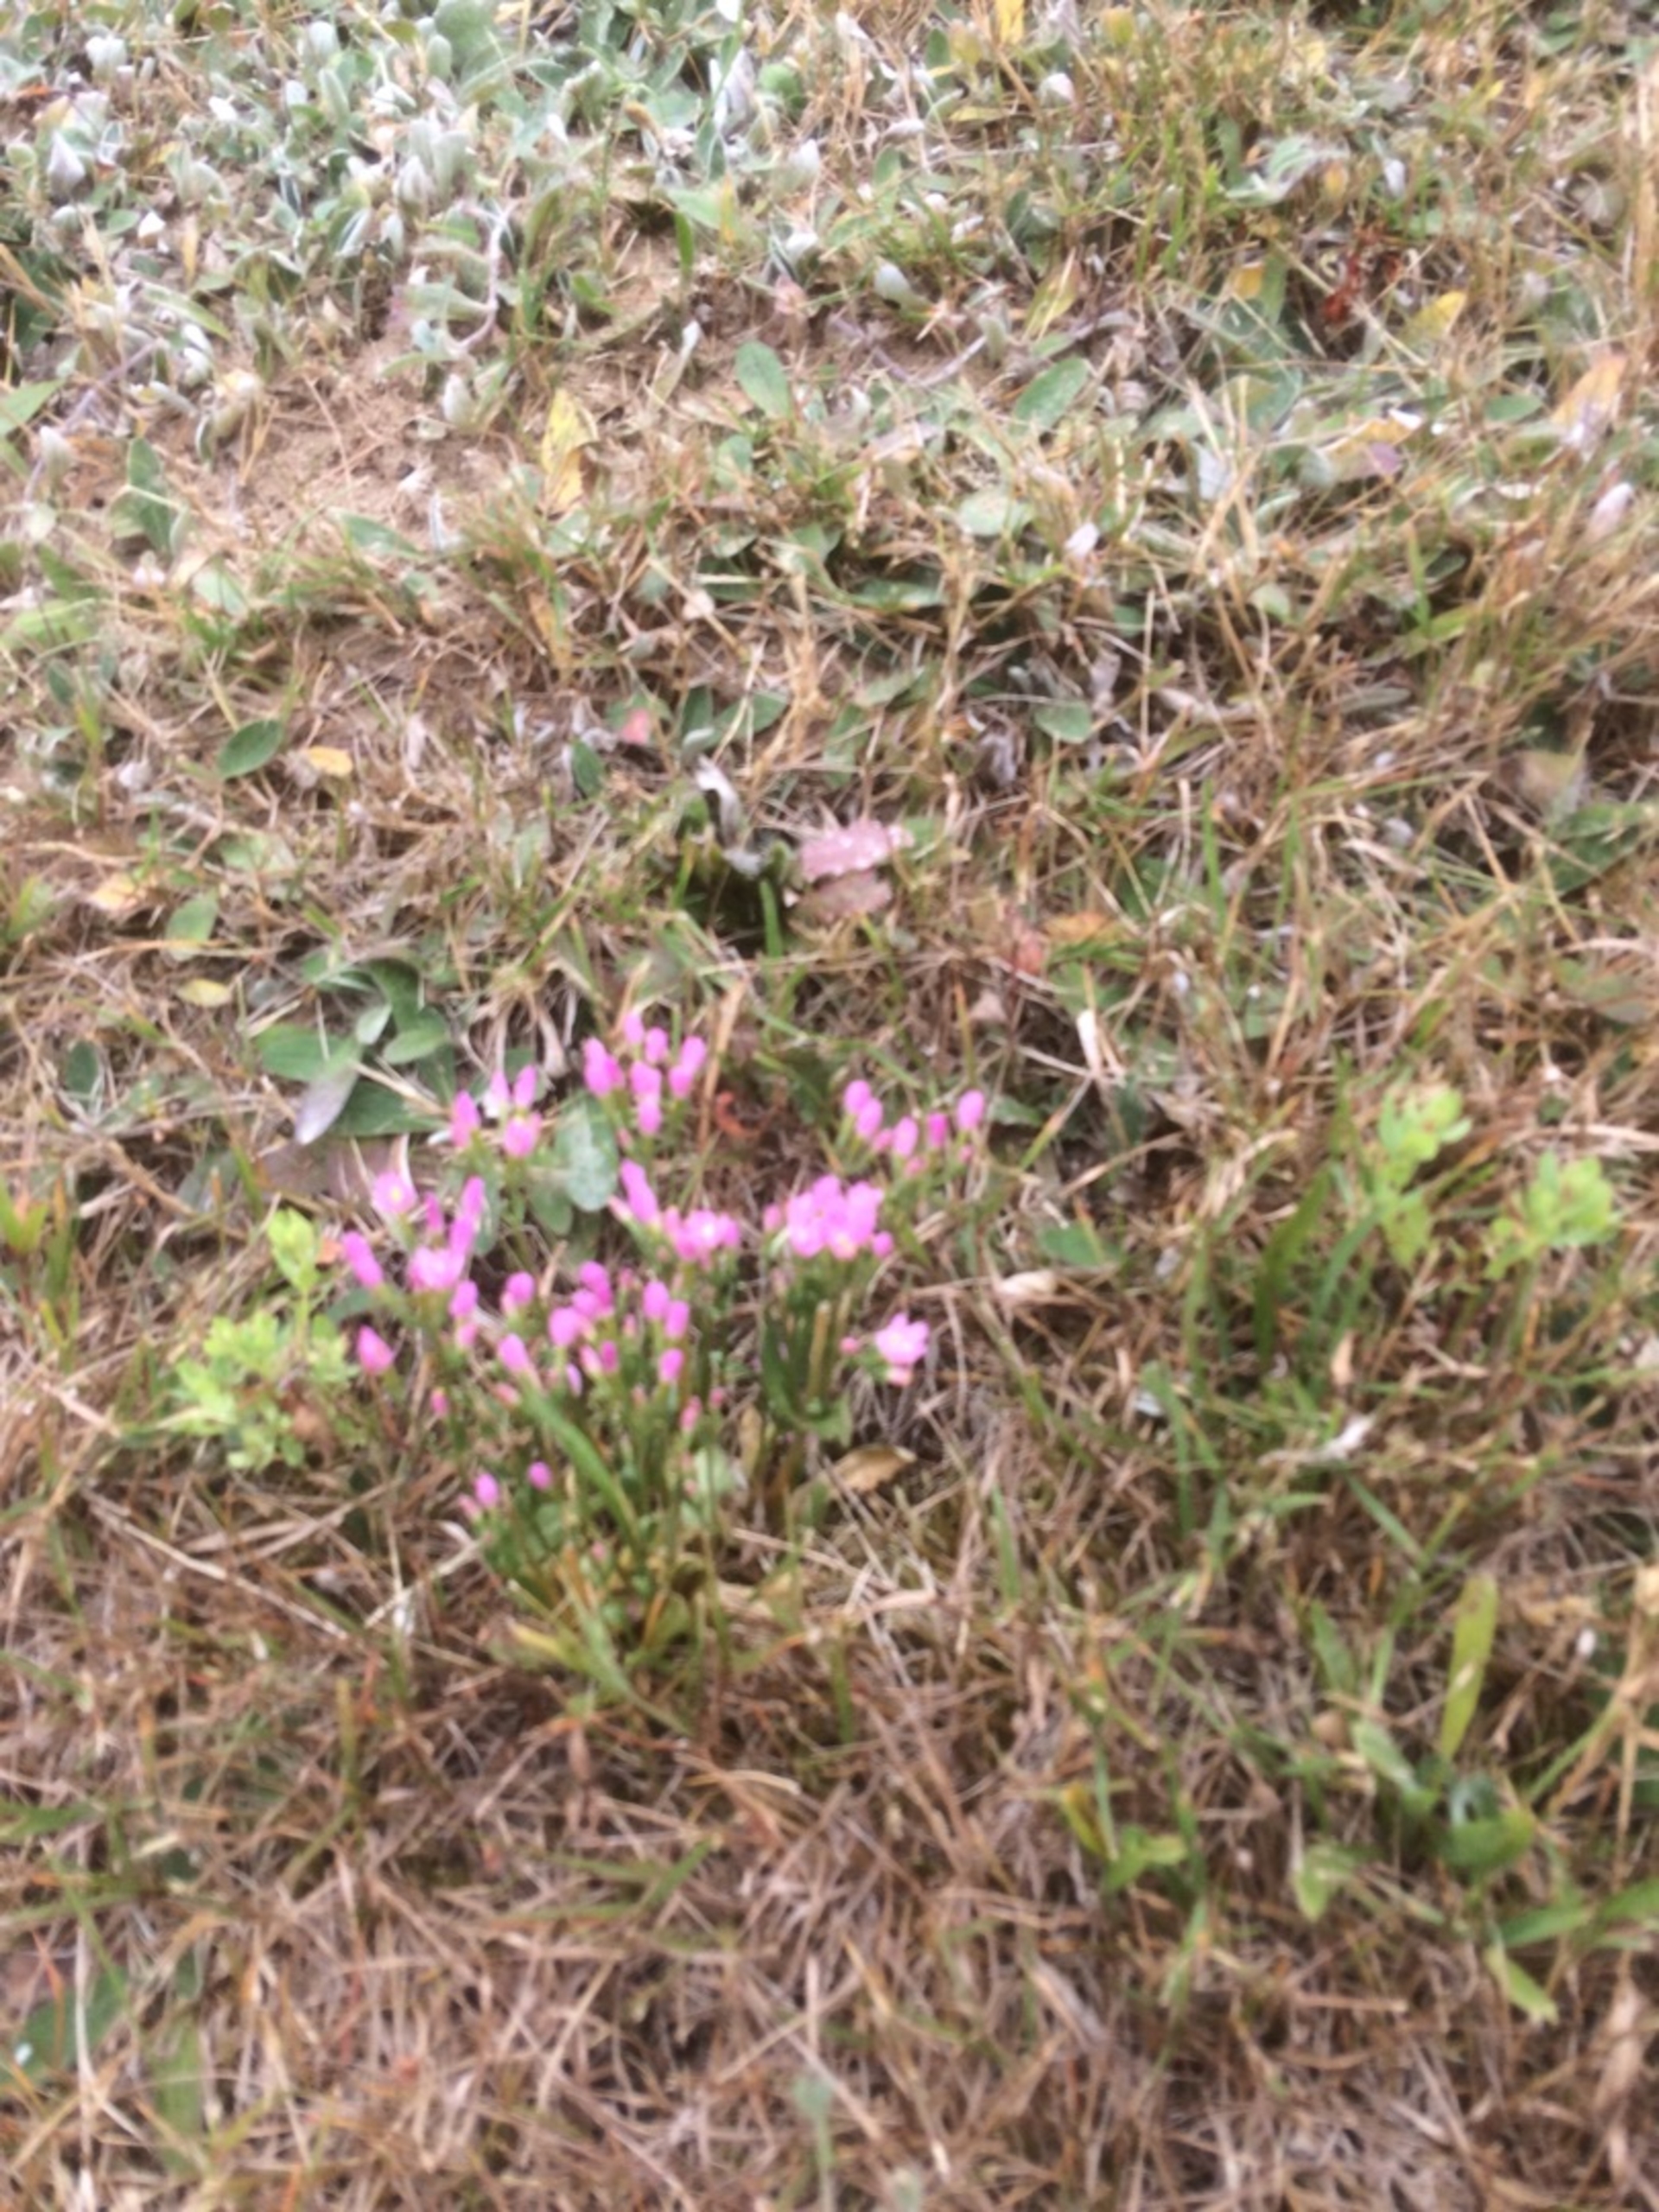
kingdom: Plantae
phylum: Tracheophyta
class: Magnoliopsida
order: Gentianales
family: Gentianaceae
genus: Centaurium
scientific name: Centaurium erythraea
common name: Mark-tusindgylden
